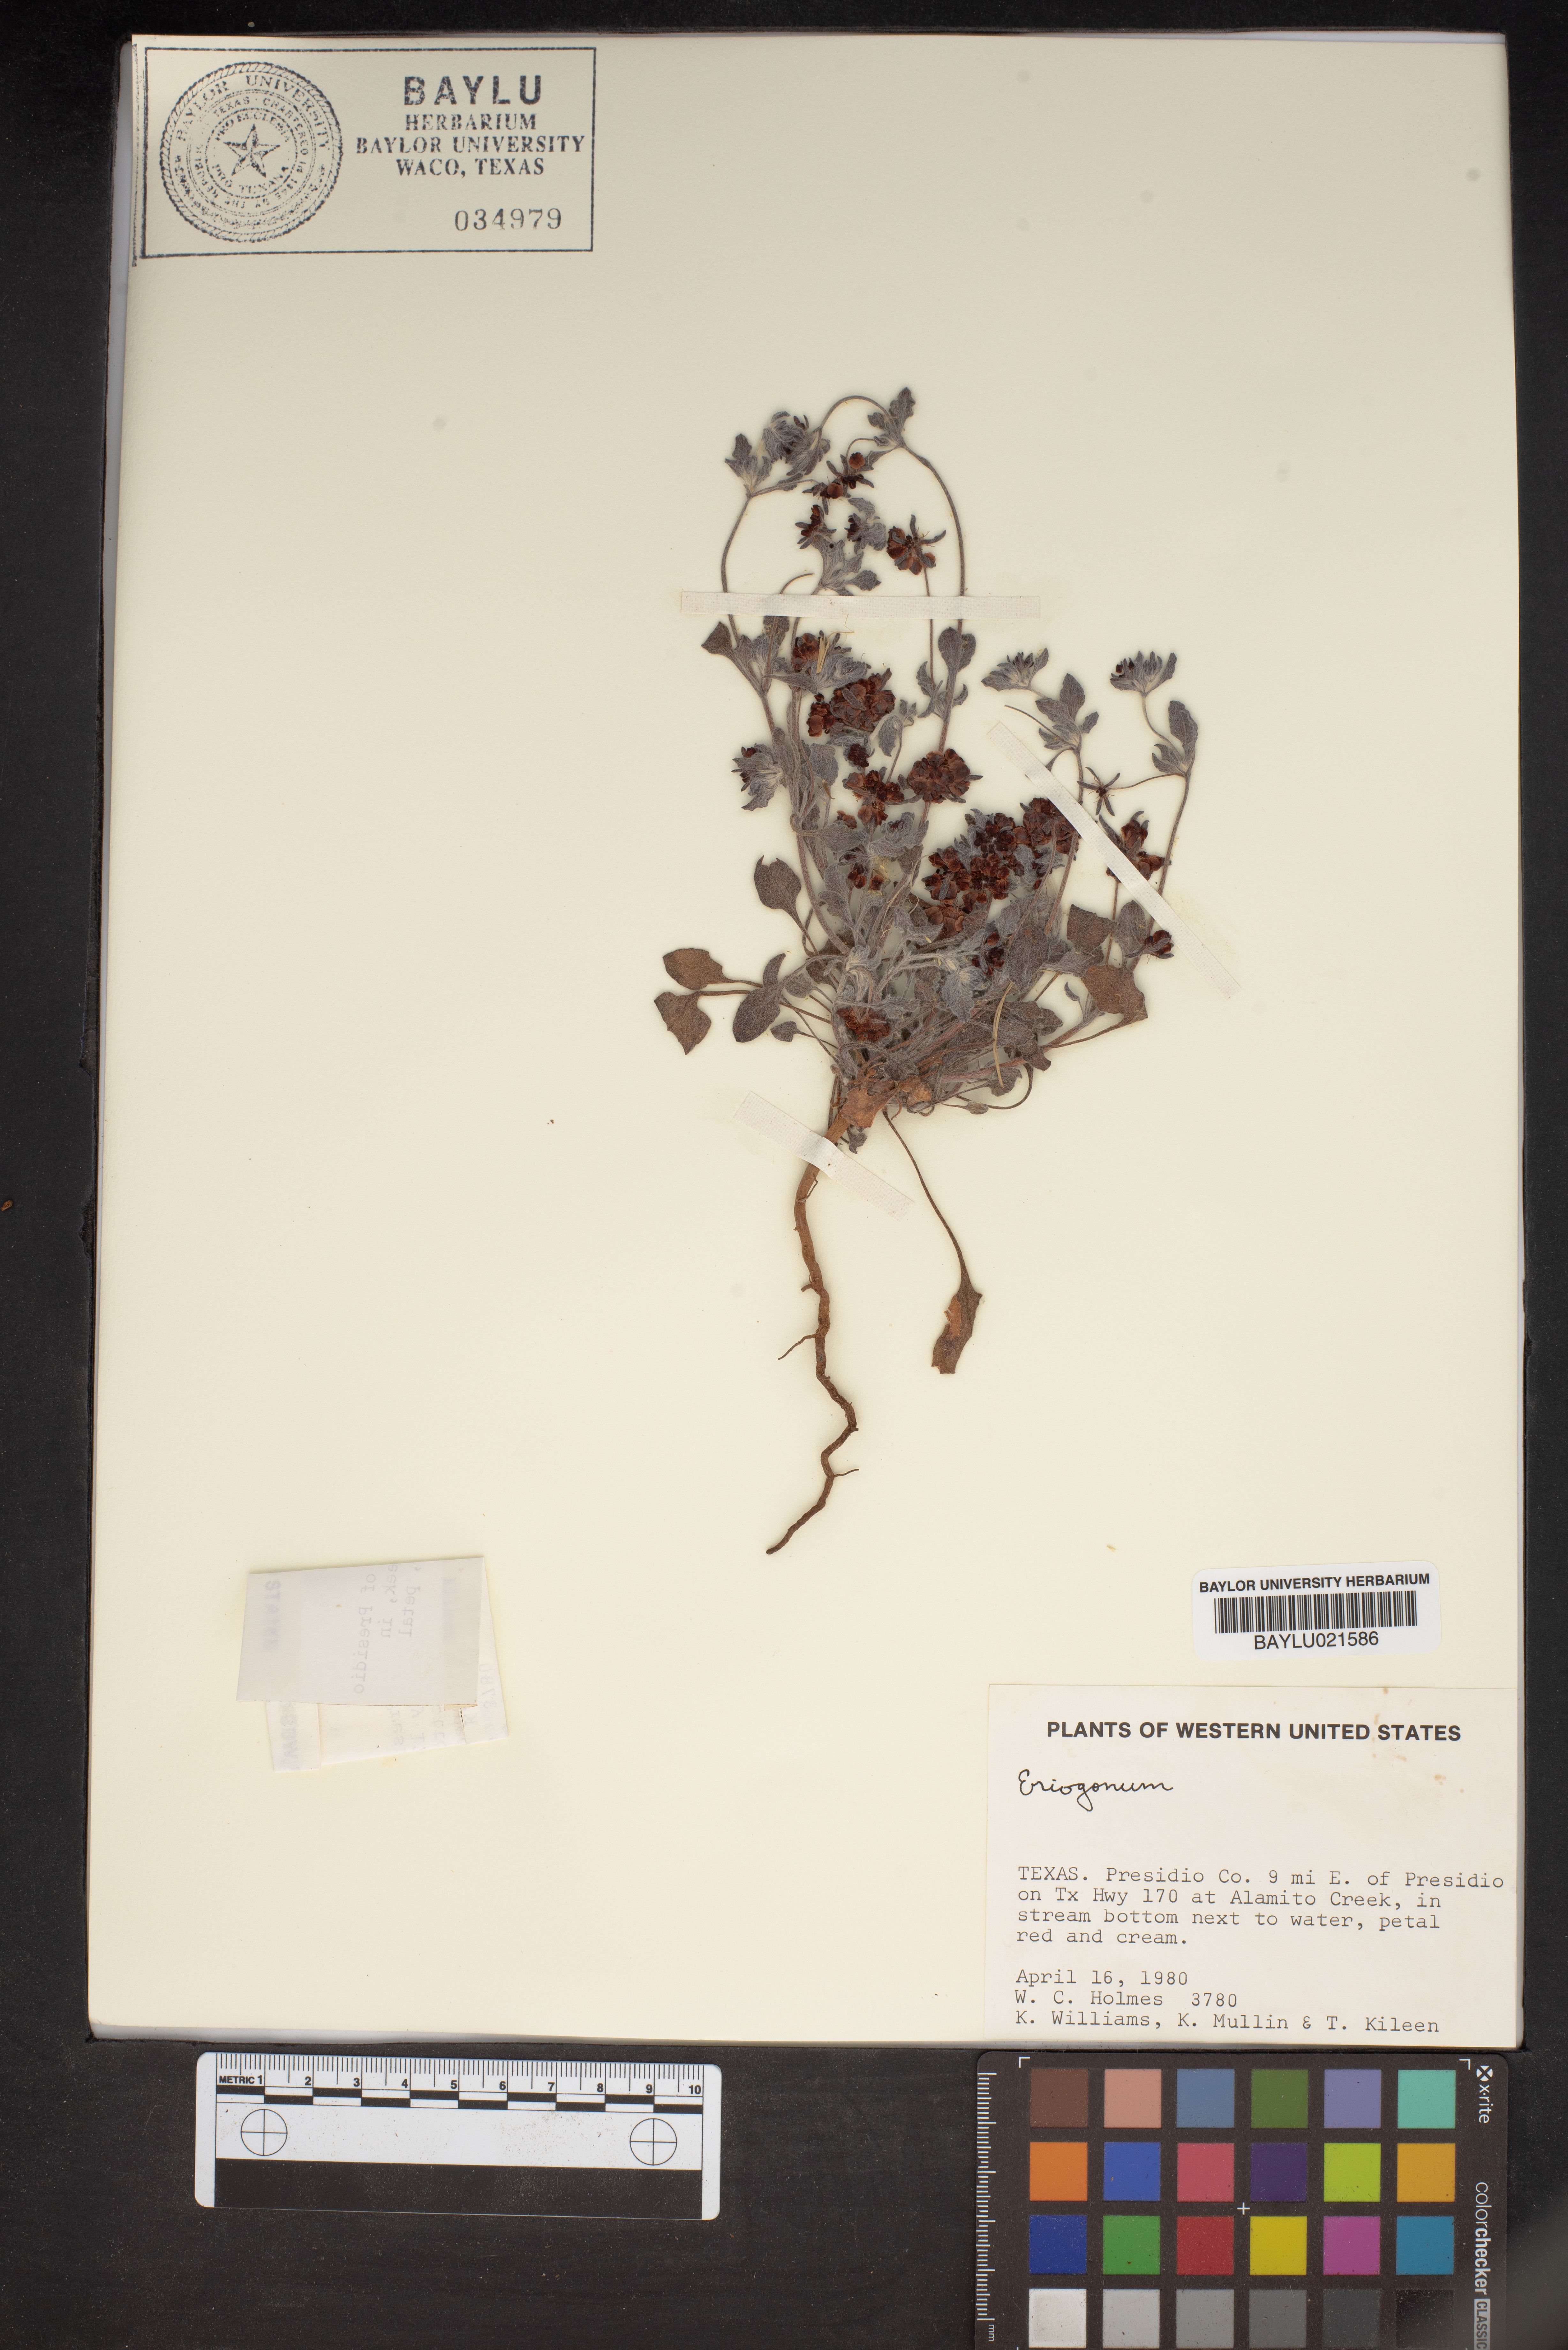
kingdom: Plantae
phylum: Tracheophyta
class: Magnoliopsida
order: Caryophyllales
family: Polygonaceae
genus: Eriogonum
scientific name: Eriogonum
